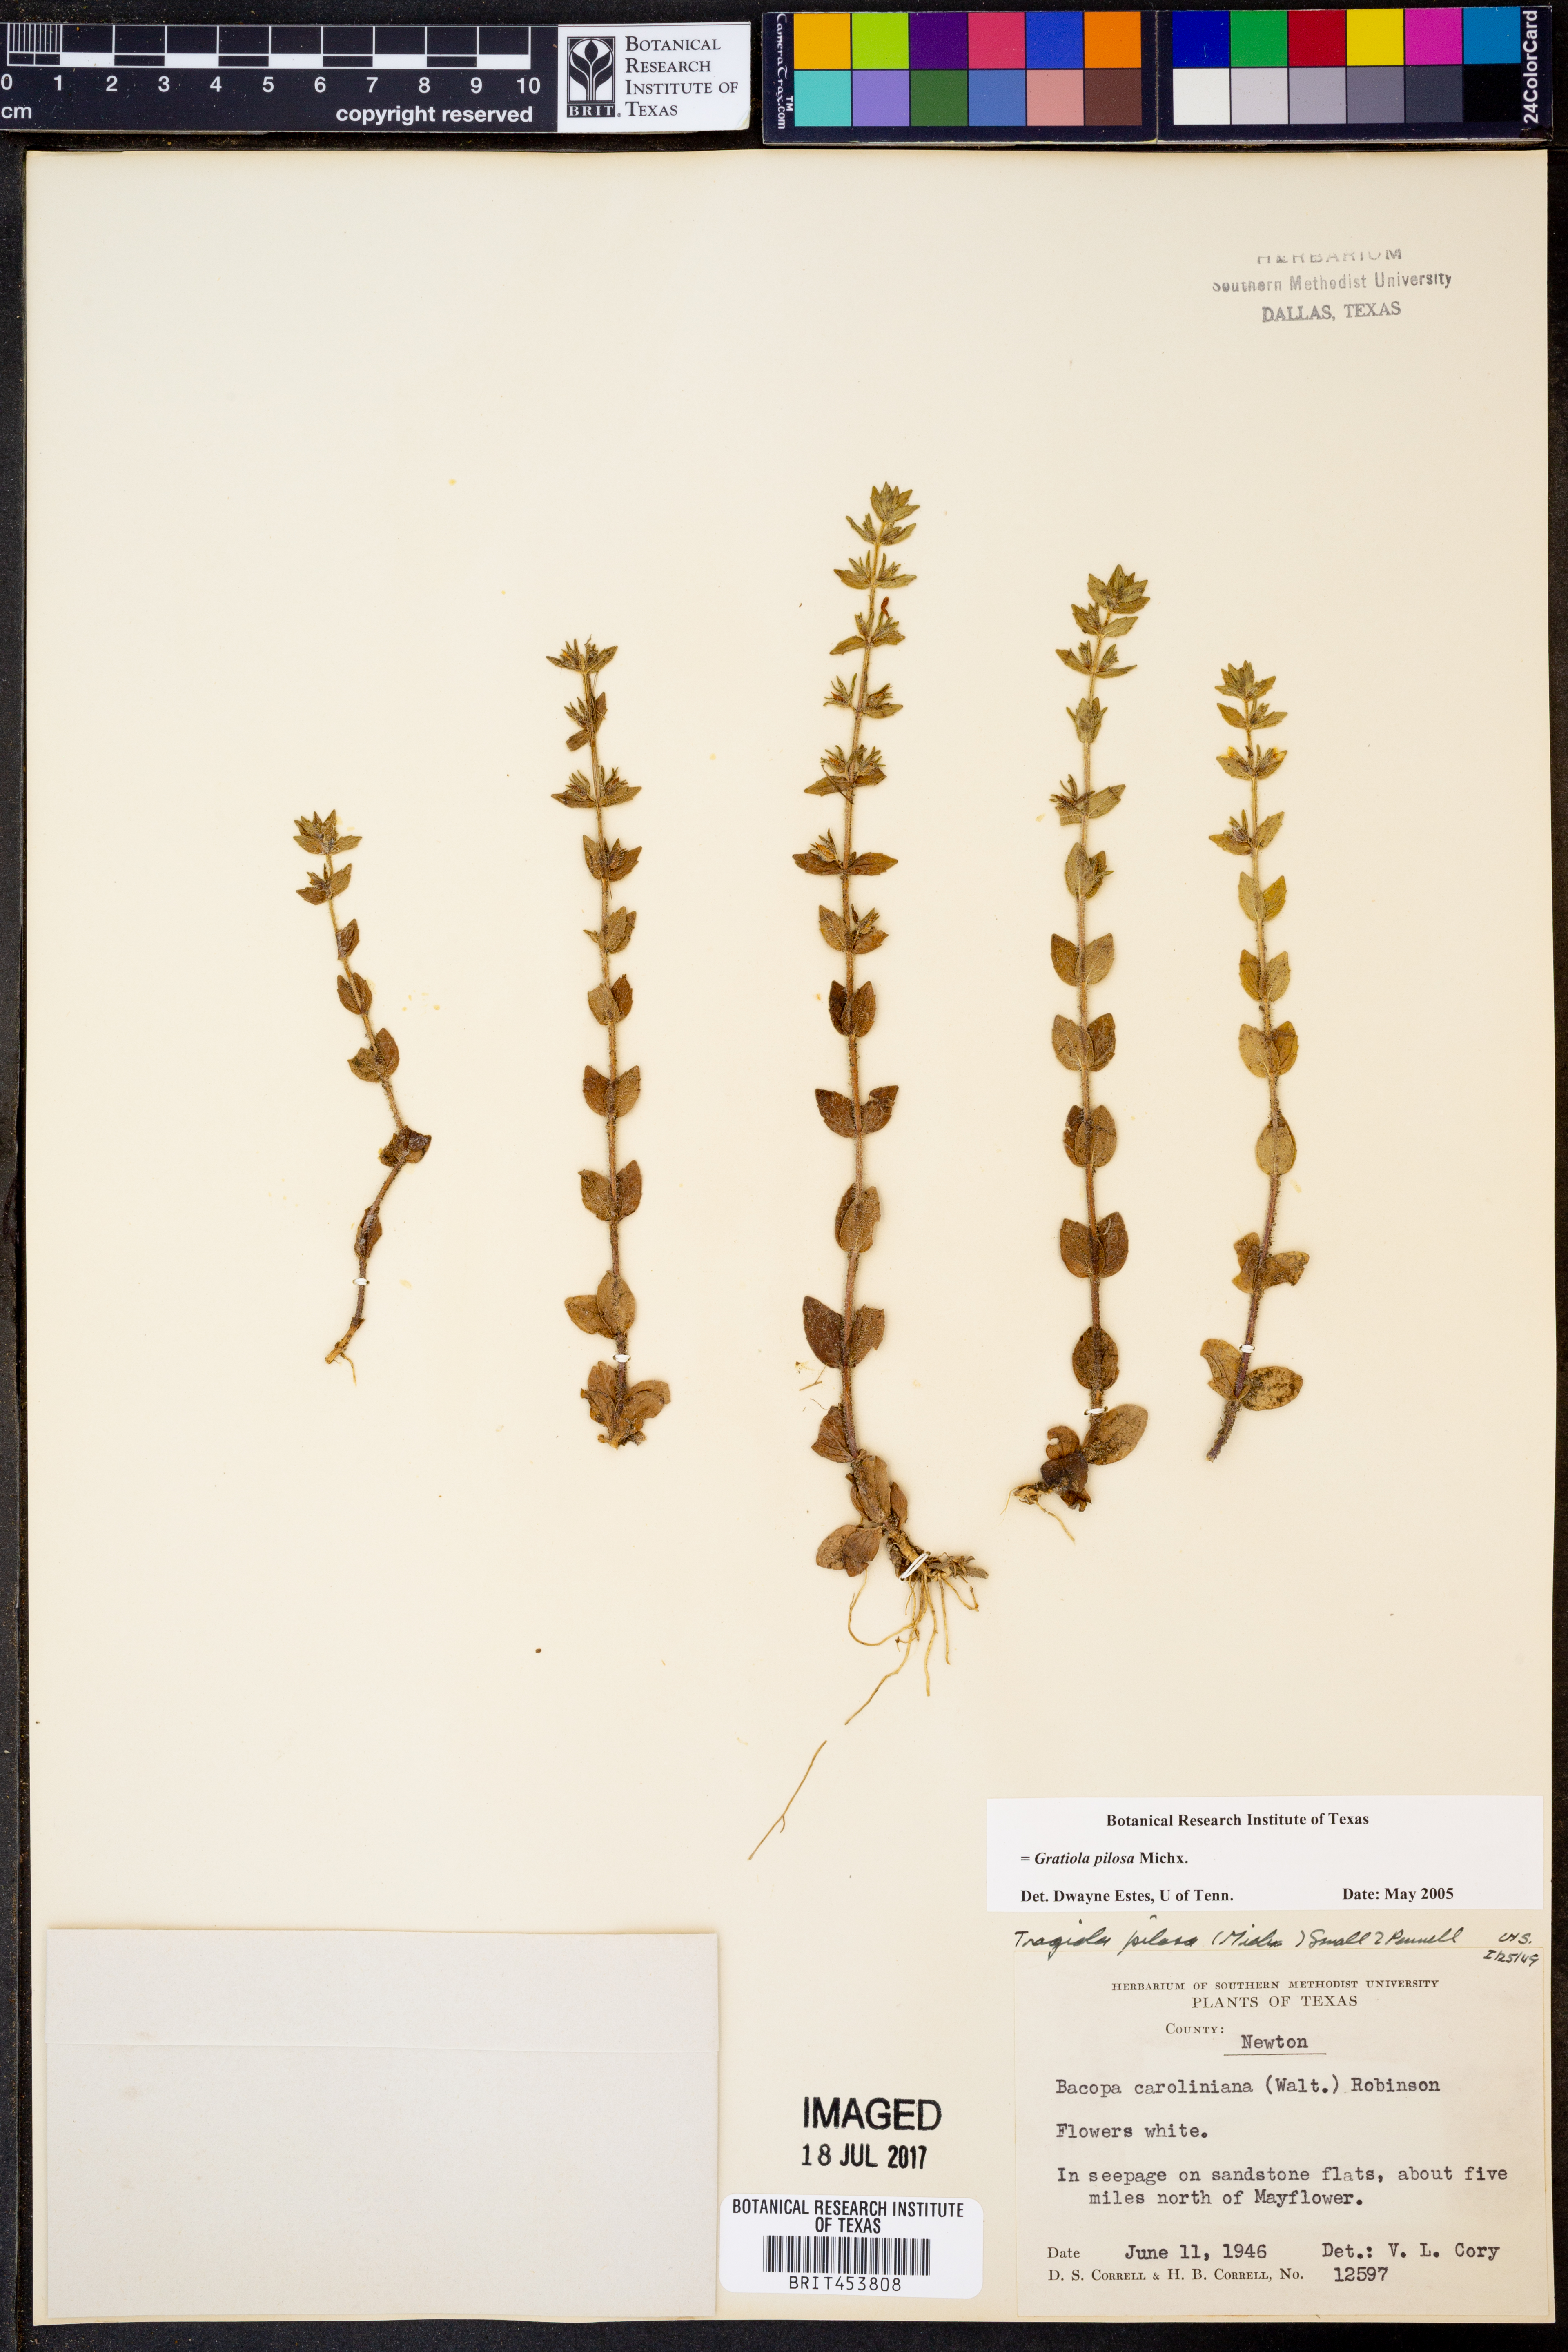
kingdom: Plantae
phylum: Tracheophyta
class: Magnoliopsida
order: Lamiales
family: Plantaginaceae
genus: Gratiola
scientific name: Gratiola pilosa
